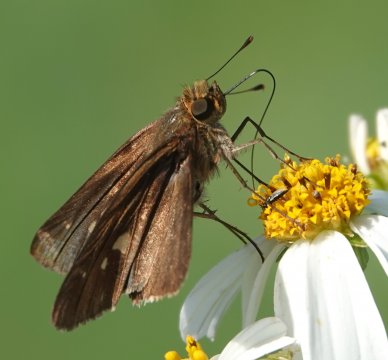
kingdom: Animalia
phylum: Arthropoda
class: Insecta
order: Lepidoptera
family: Hesperiidae
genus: Panoquina
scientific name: Panoquina ocola
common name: Ocola Skipper
